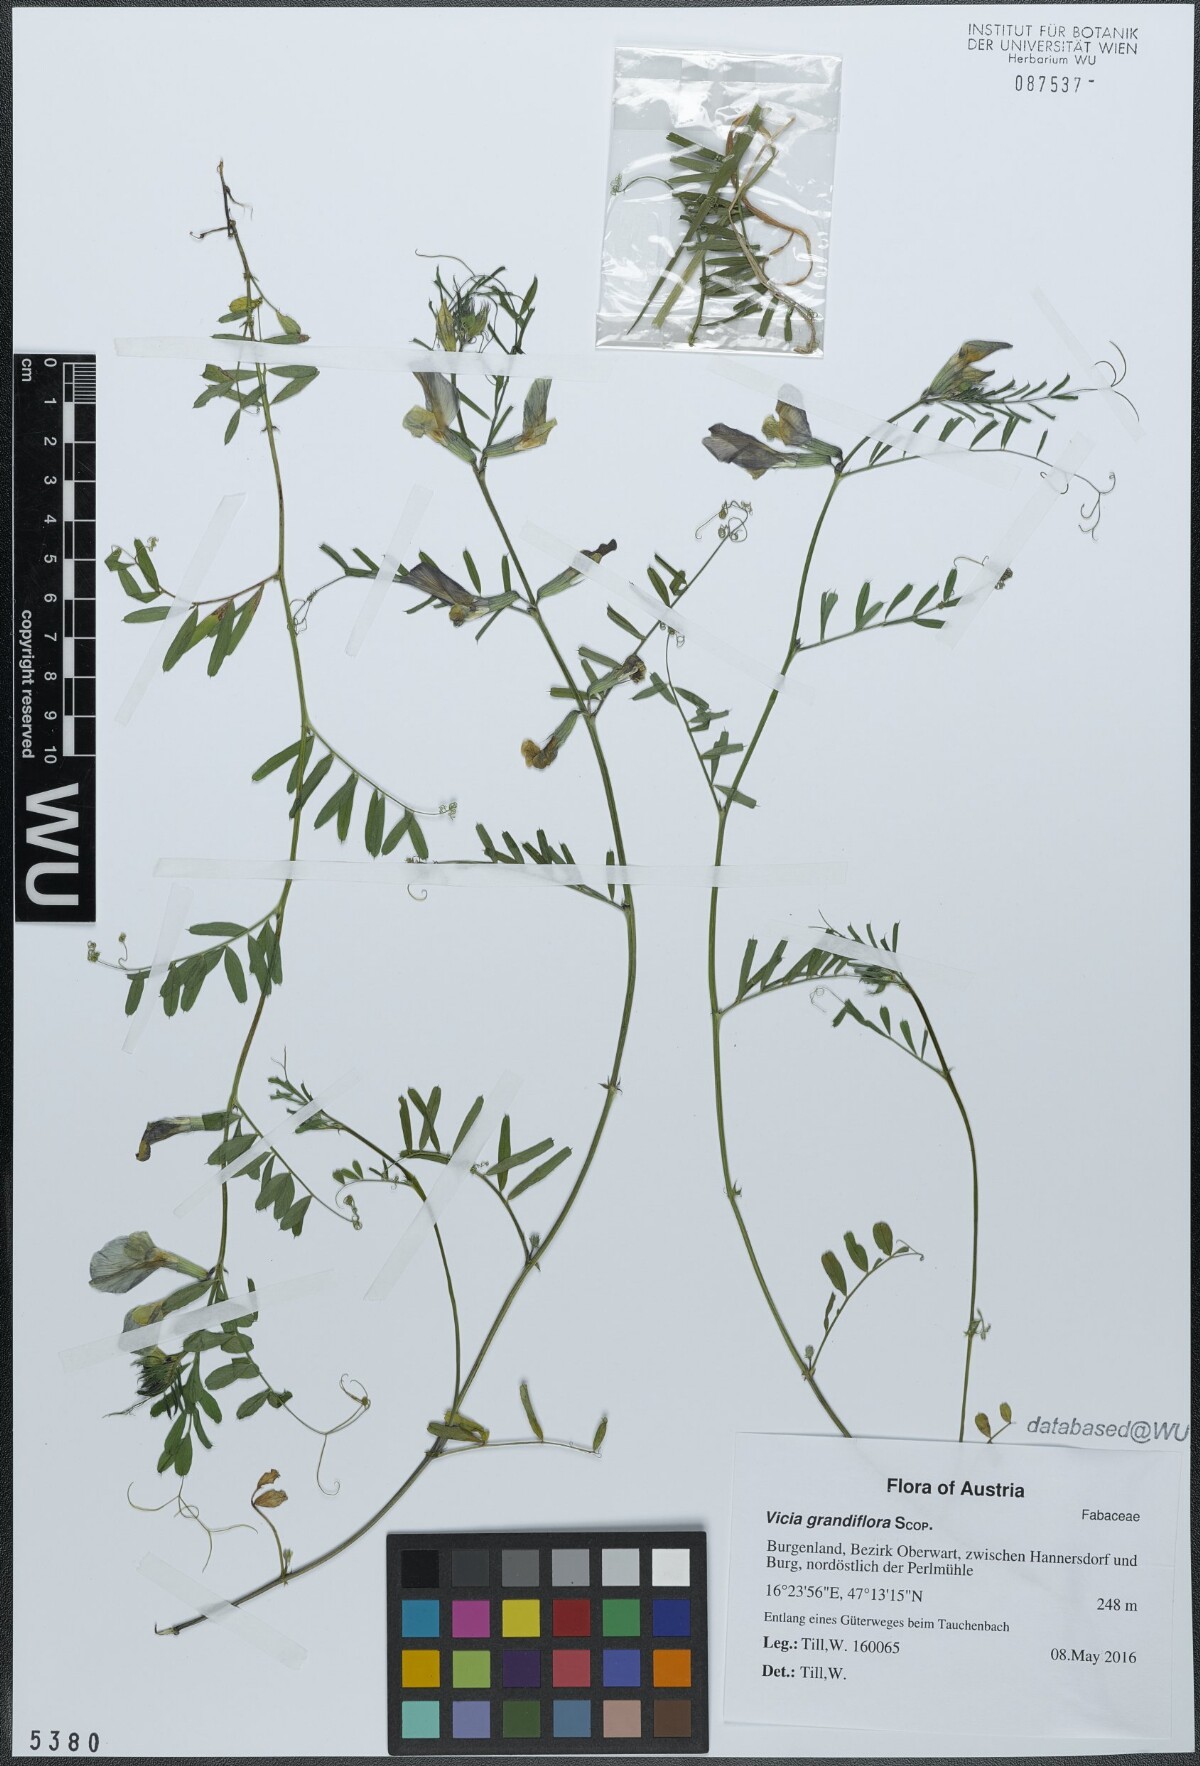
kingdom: Plantae
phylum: Tracheophyta
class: Magnoliopsida
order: Fabales
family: Fabaceae
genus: Vicia
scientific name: Vicia grandiflora
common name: Large yellow vetch
